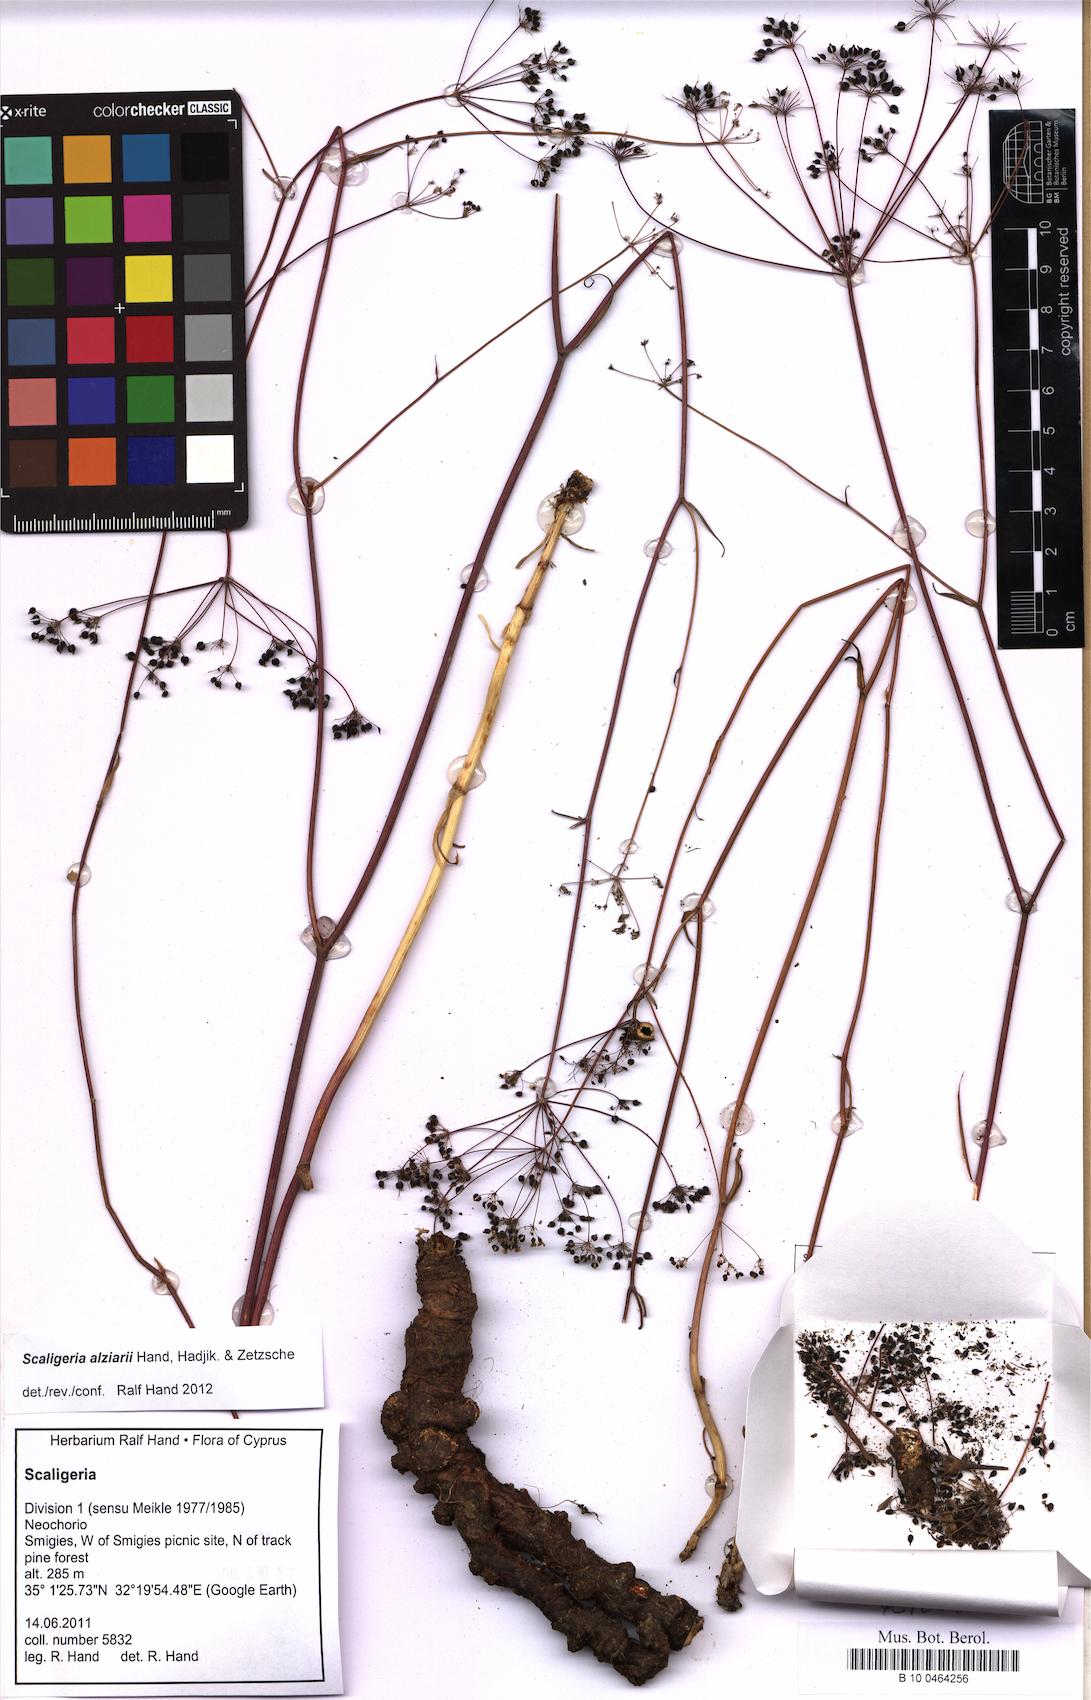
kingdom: Plantae
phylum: Tracheophyta
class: Magnoliopsida
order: Apiales
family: Apiaceae
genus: Scaligeria
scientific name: Scaligeria alziarii
